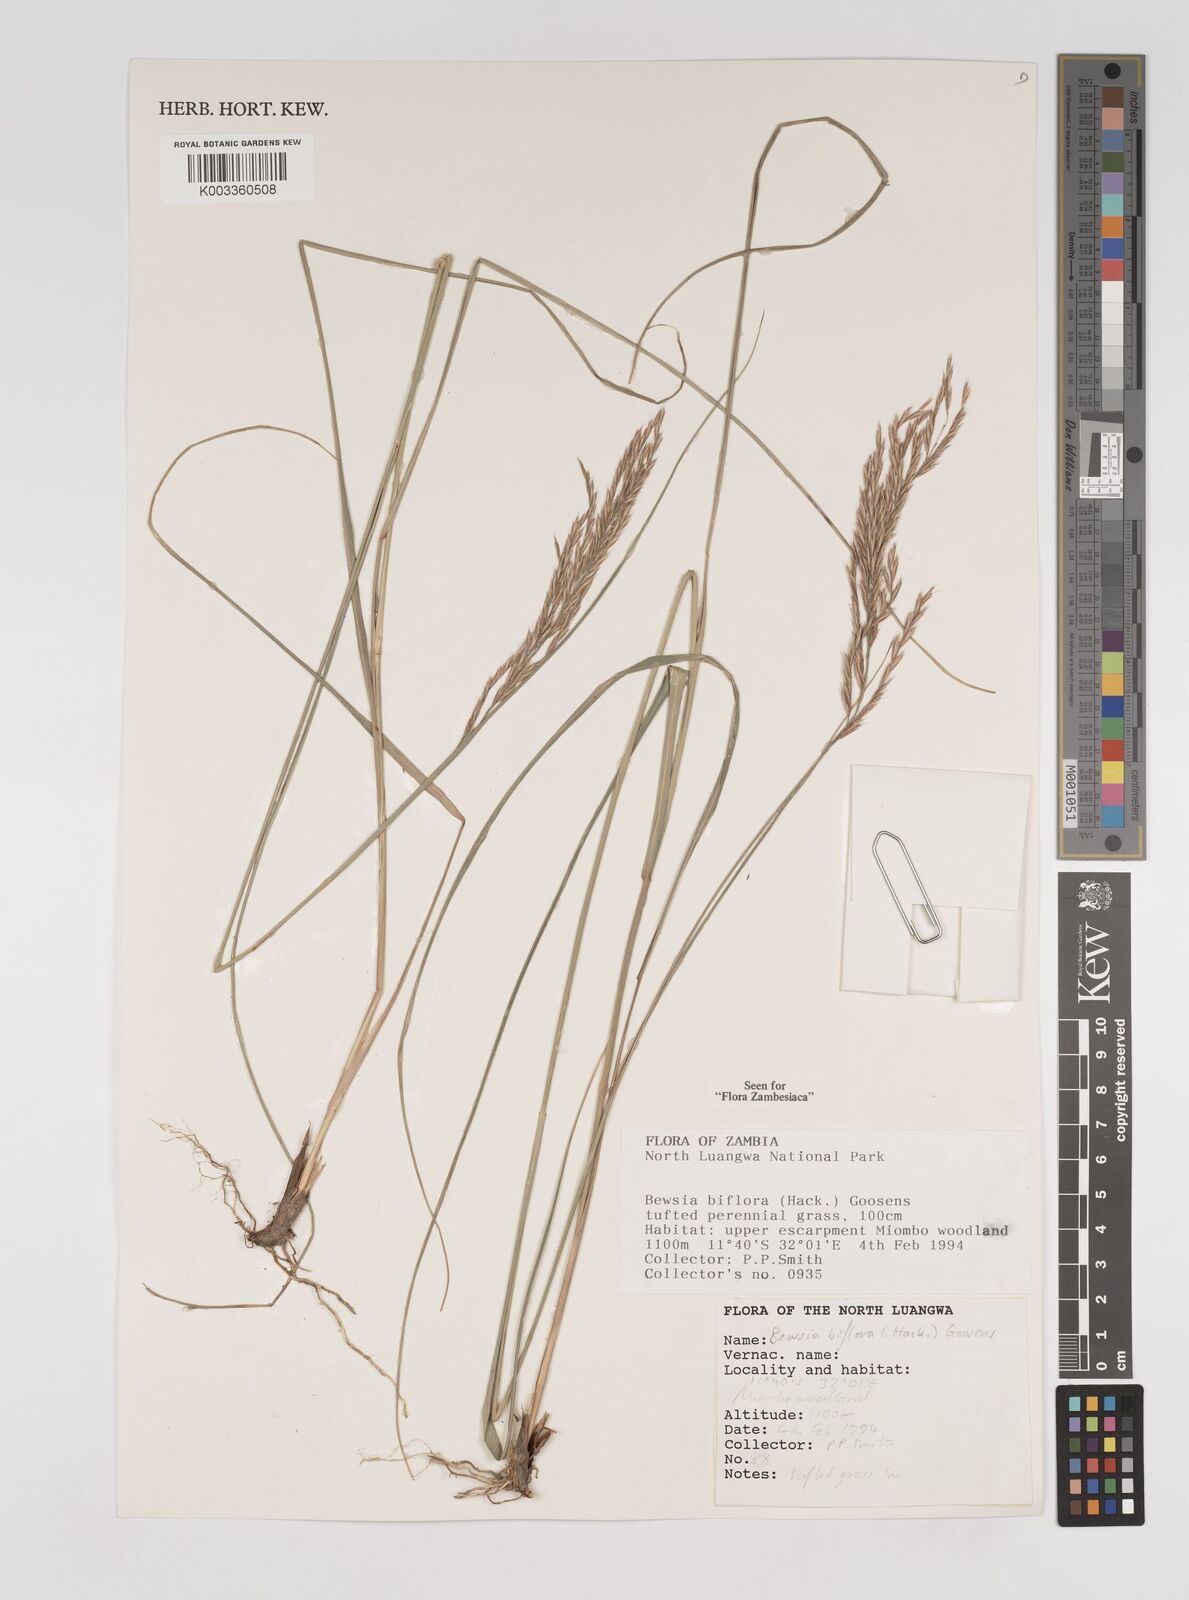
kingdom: Plantae
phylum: Tracheophyta
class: Liliopsida
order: Poales
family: Poaceae
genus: Bewsia
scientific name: Bewsia biflora
